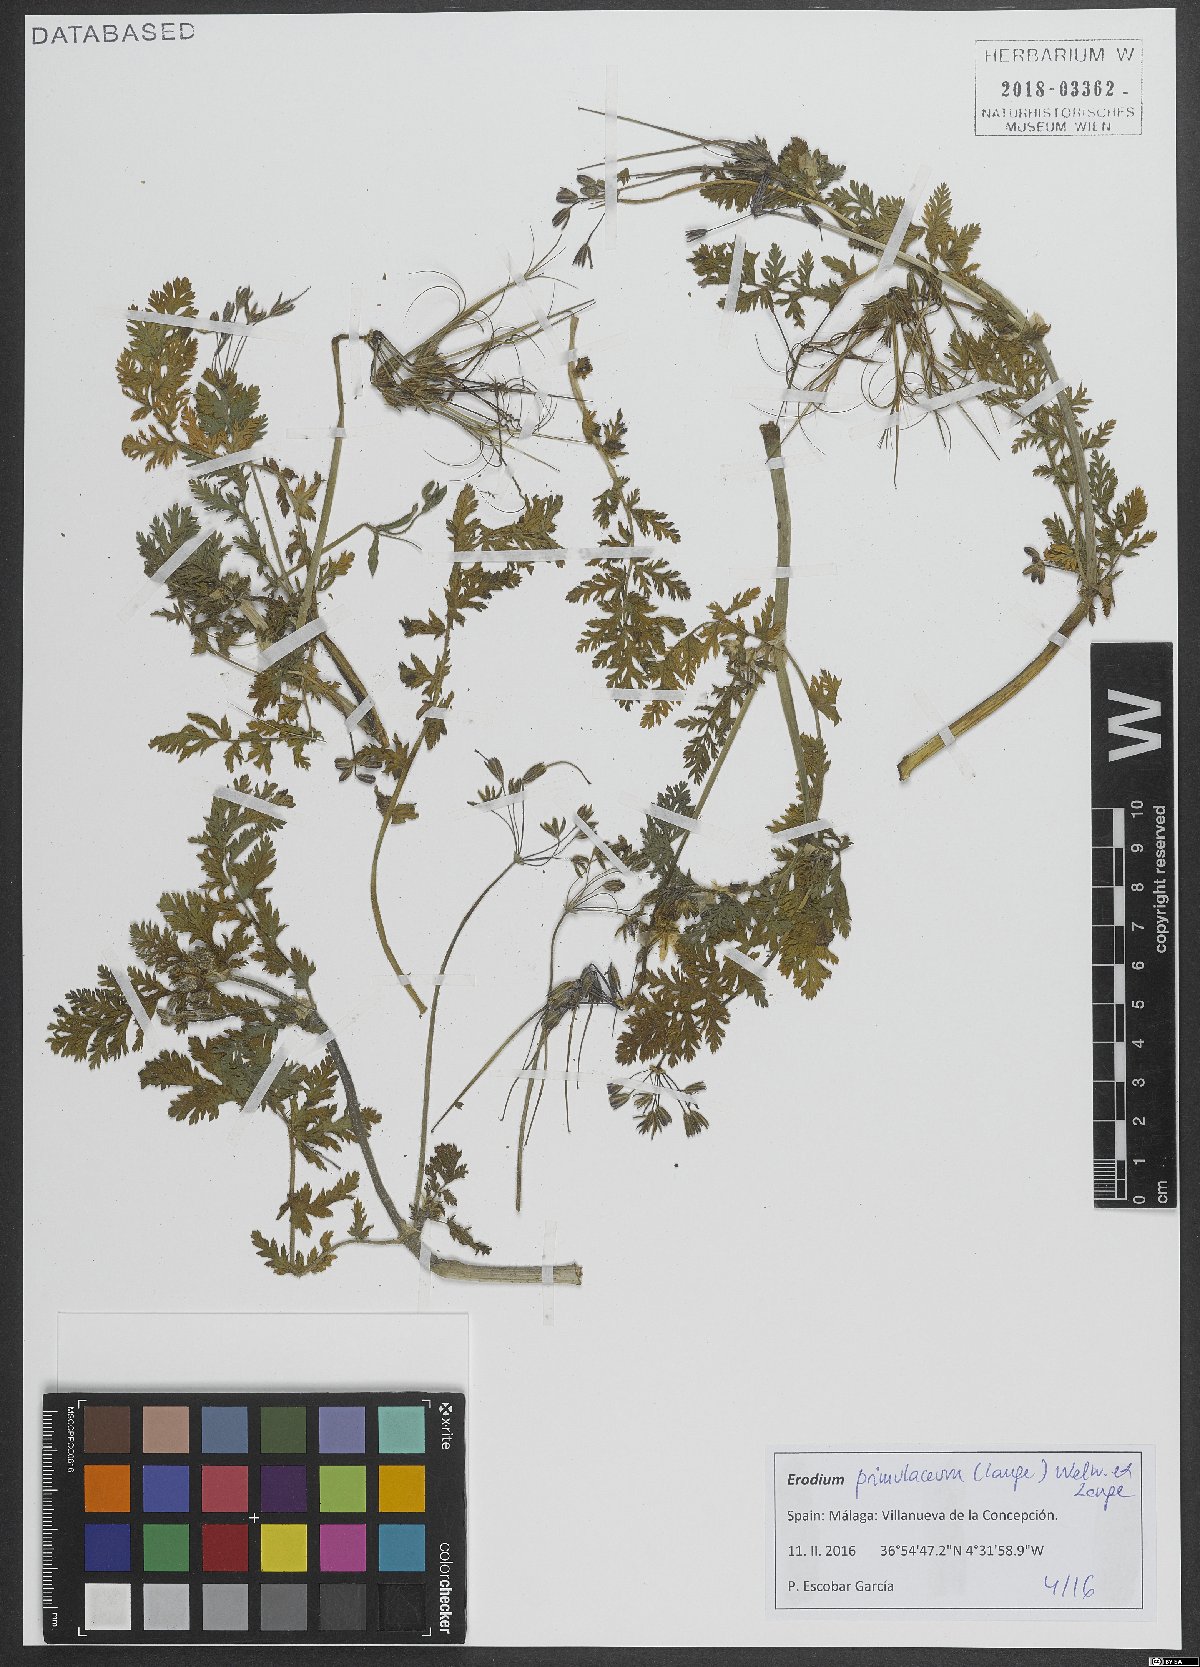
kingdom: Plantae
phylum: Tracheophyta
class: Magnoliopsida
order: Geraniales
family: Geraniaceae
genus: Erodium
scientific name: Erodium maculatum
